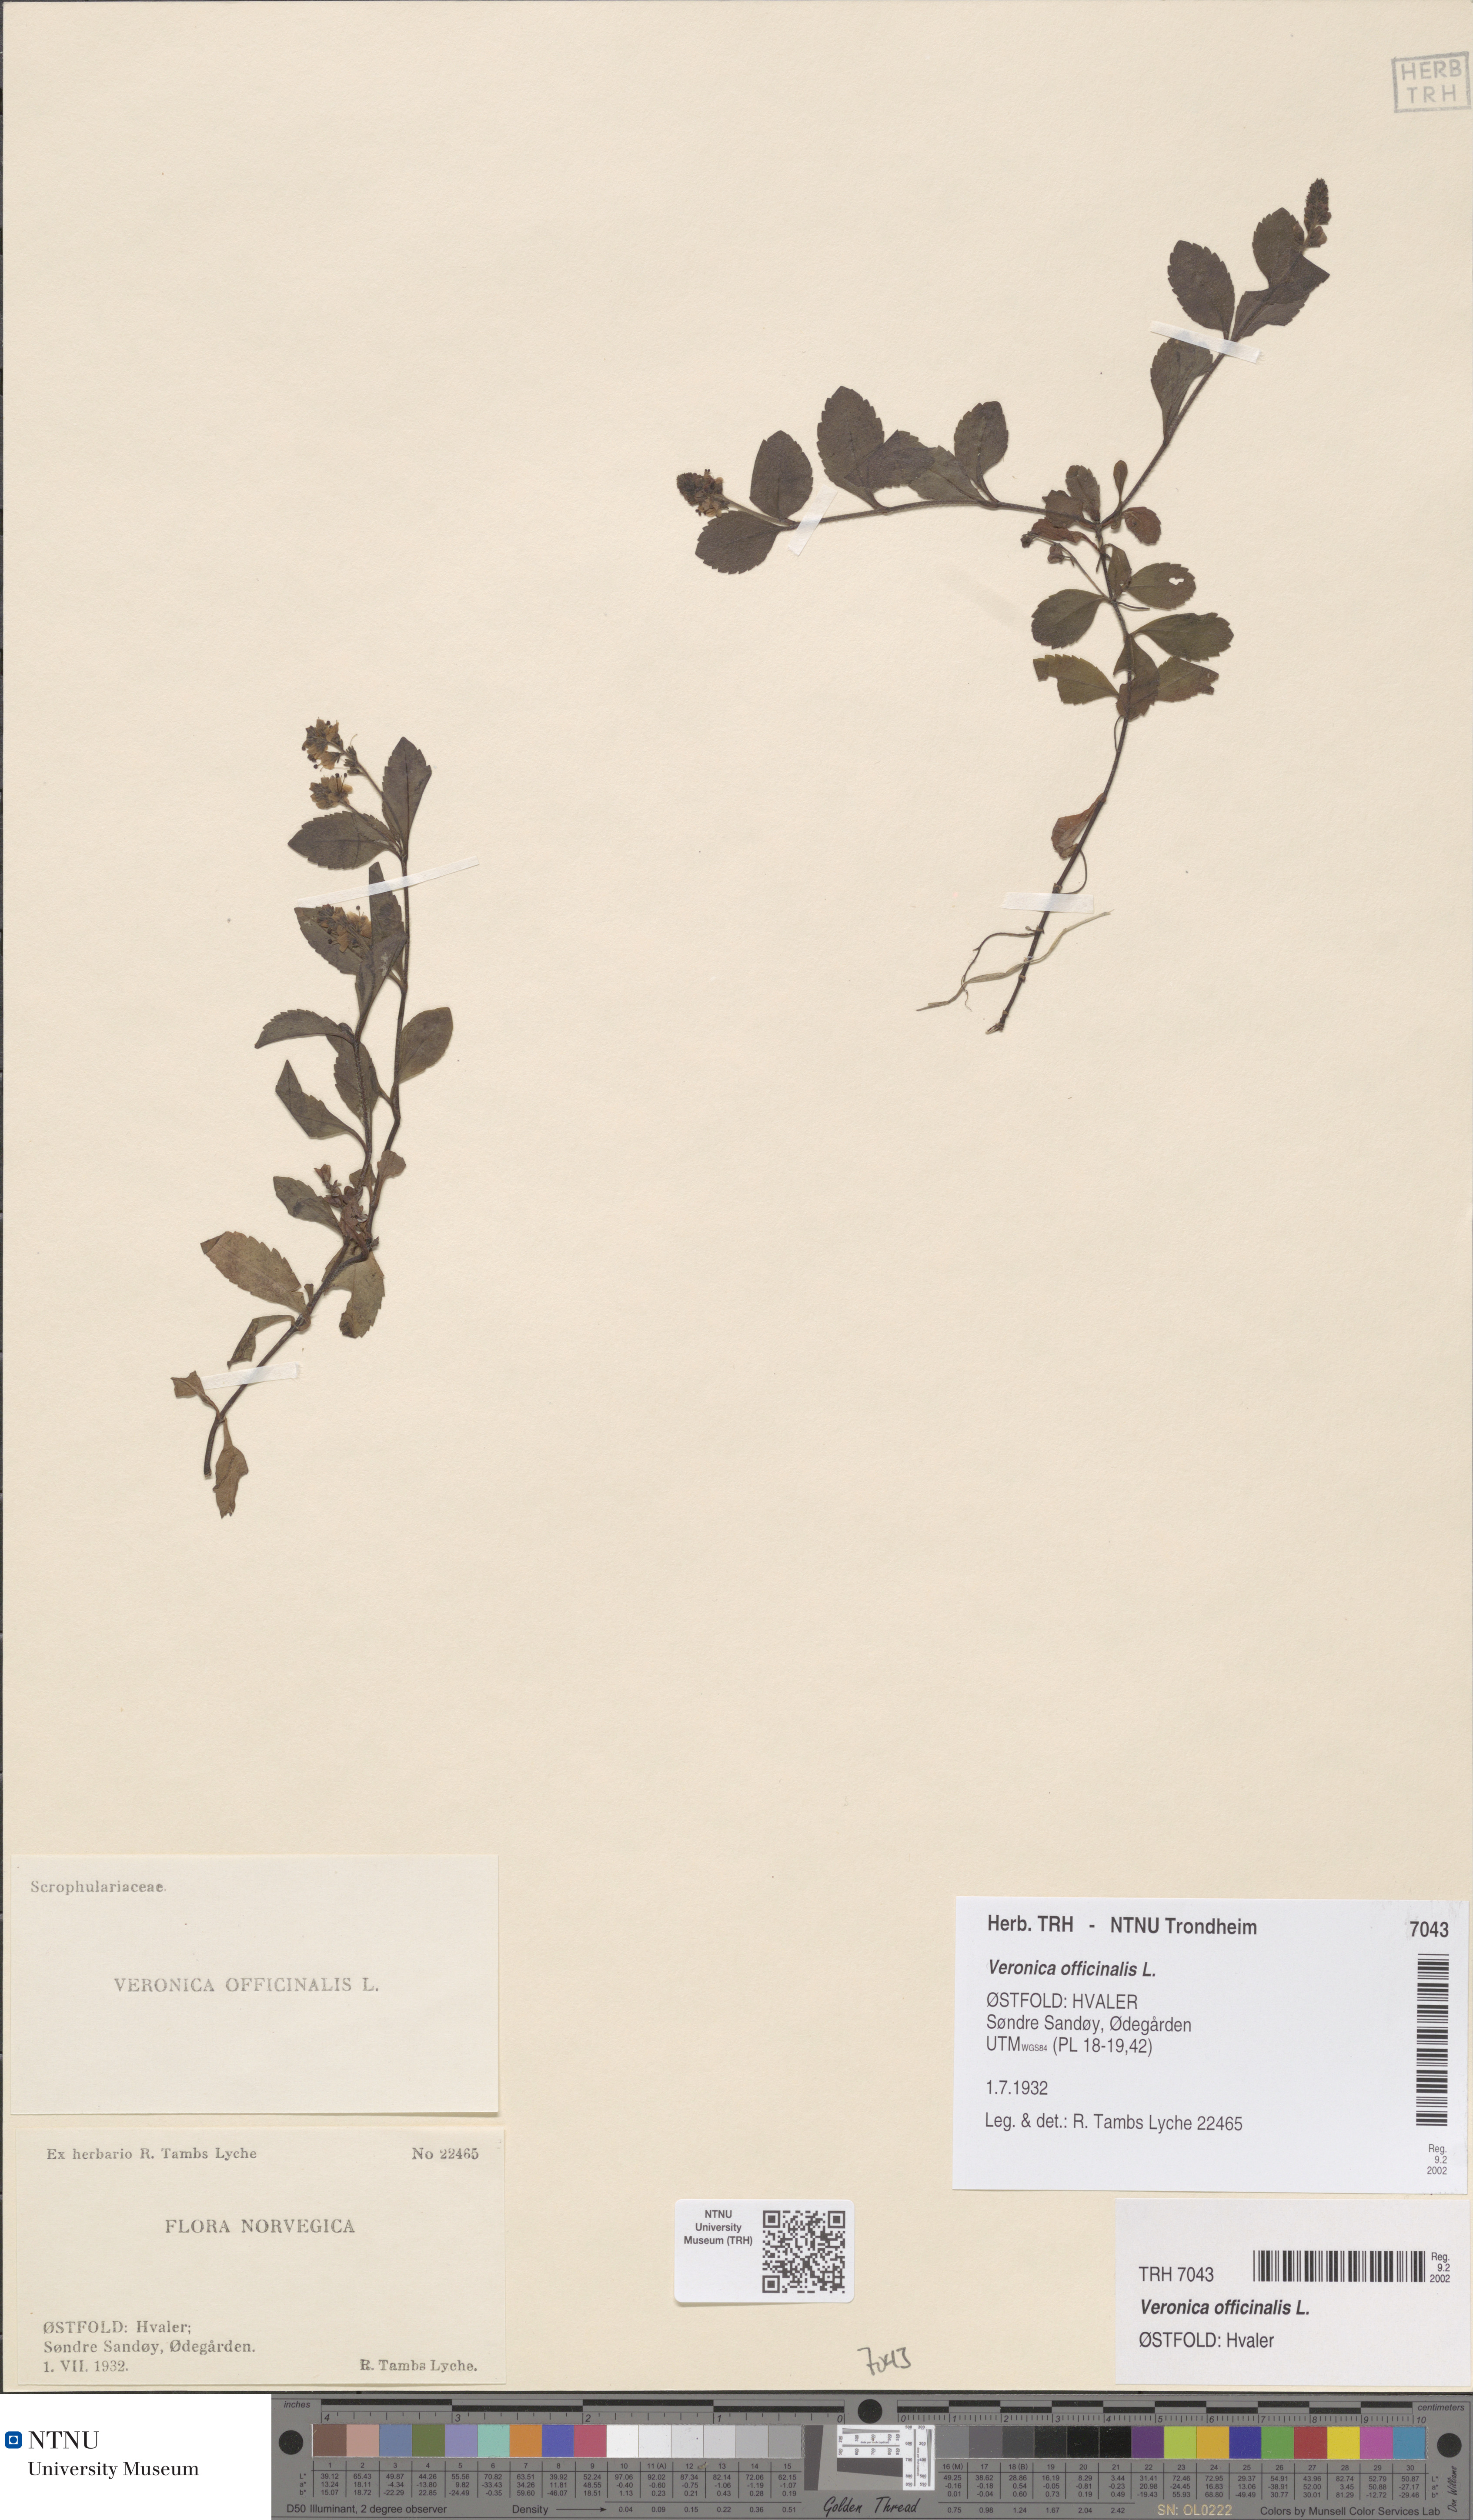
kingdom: Plantae
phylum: Tracheophyta
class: Magnoliopsida
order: Lamiales
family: Plantaginaceae
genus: Veronica
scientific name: Veronica officinalis
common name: Common speedwell
